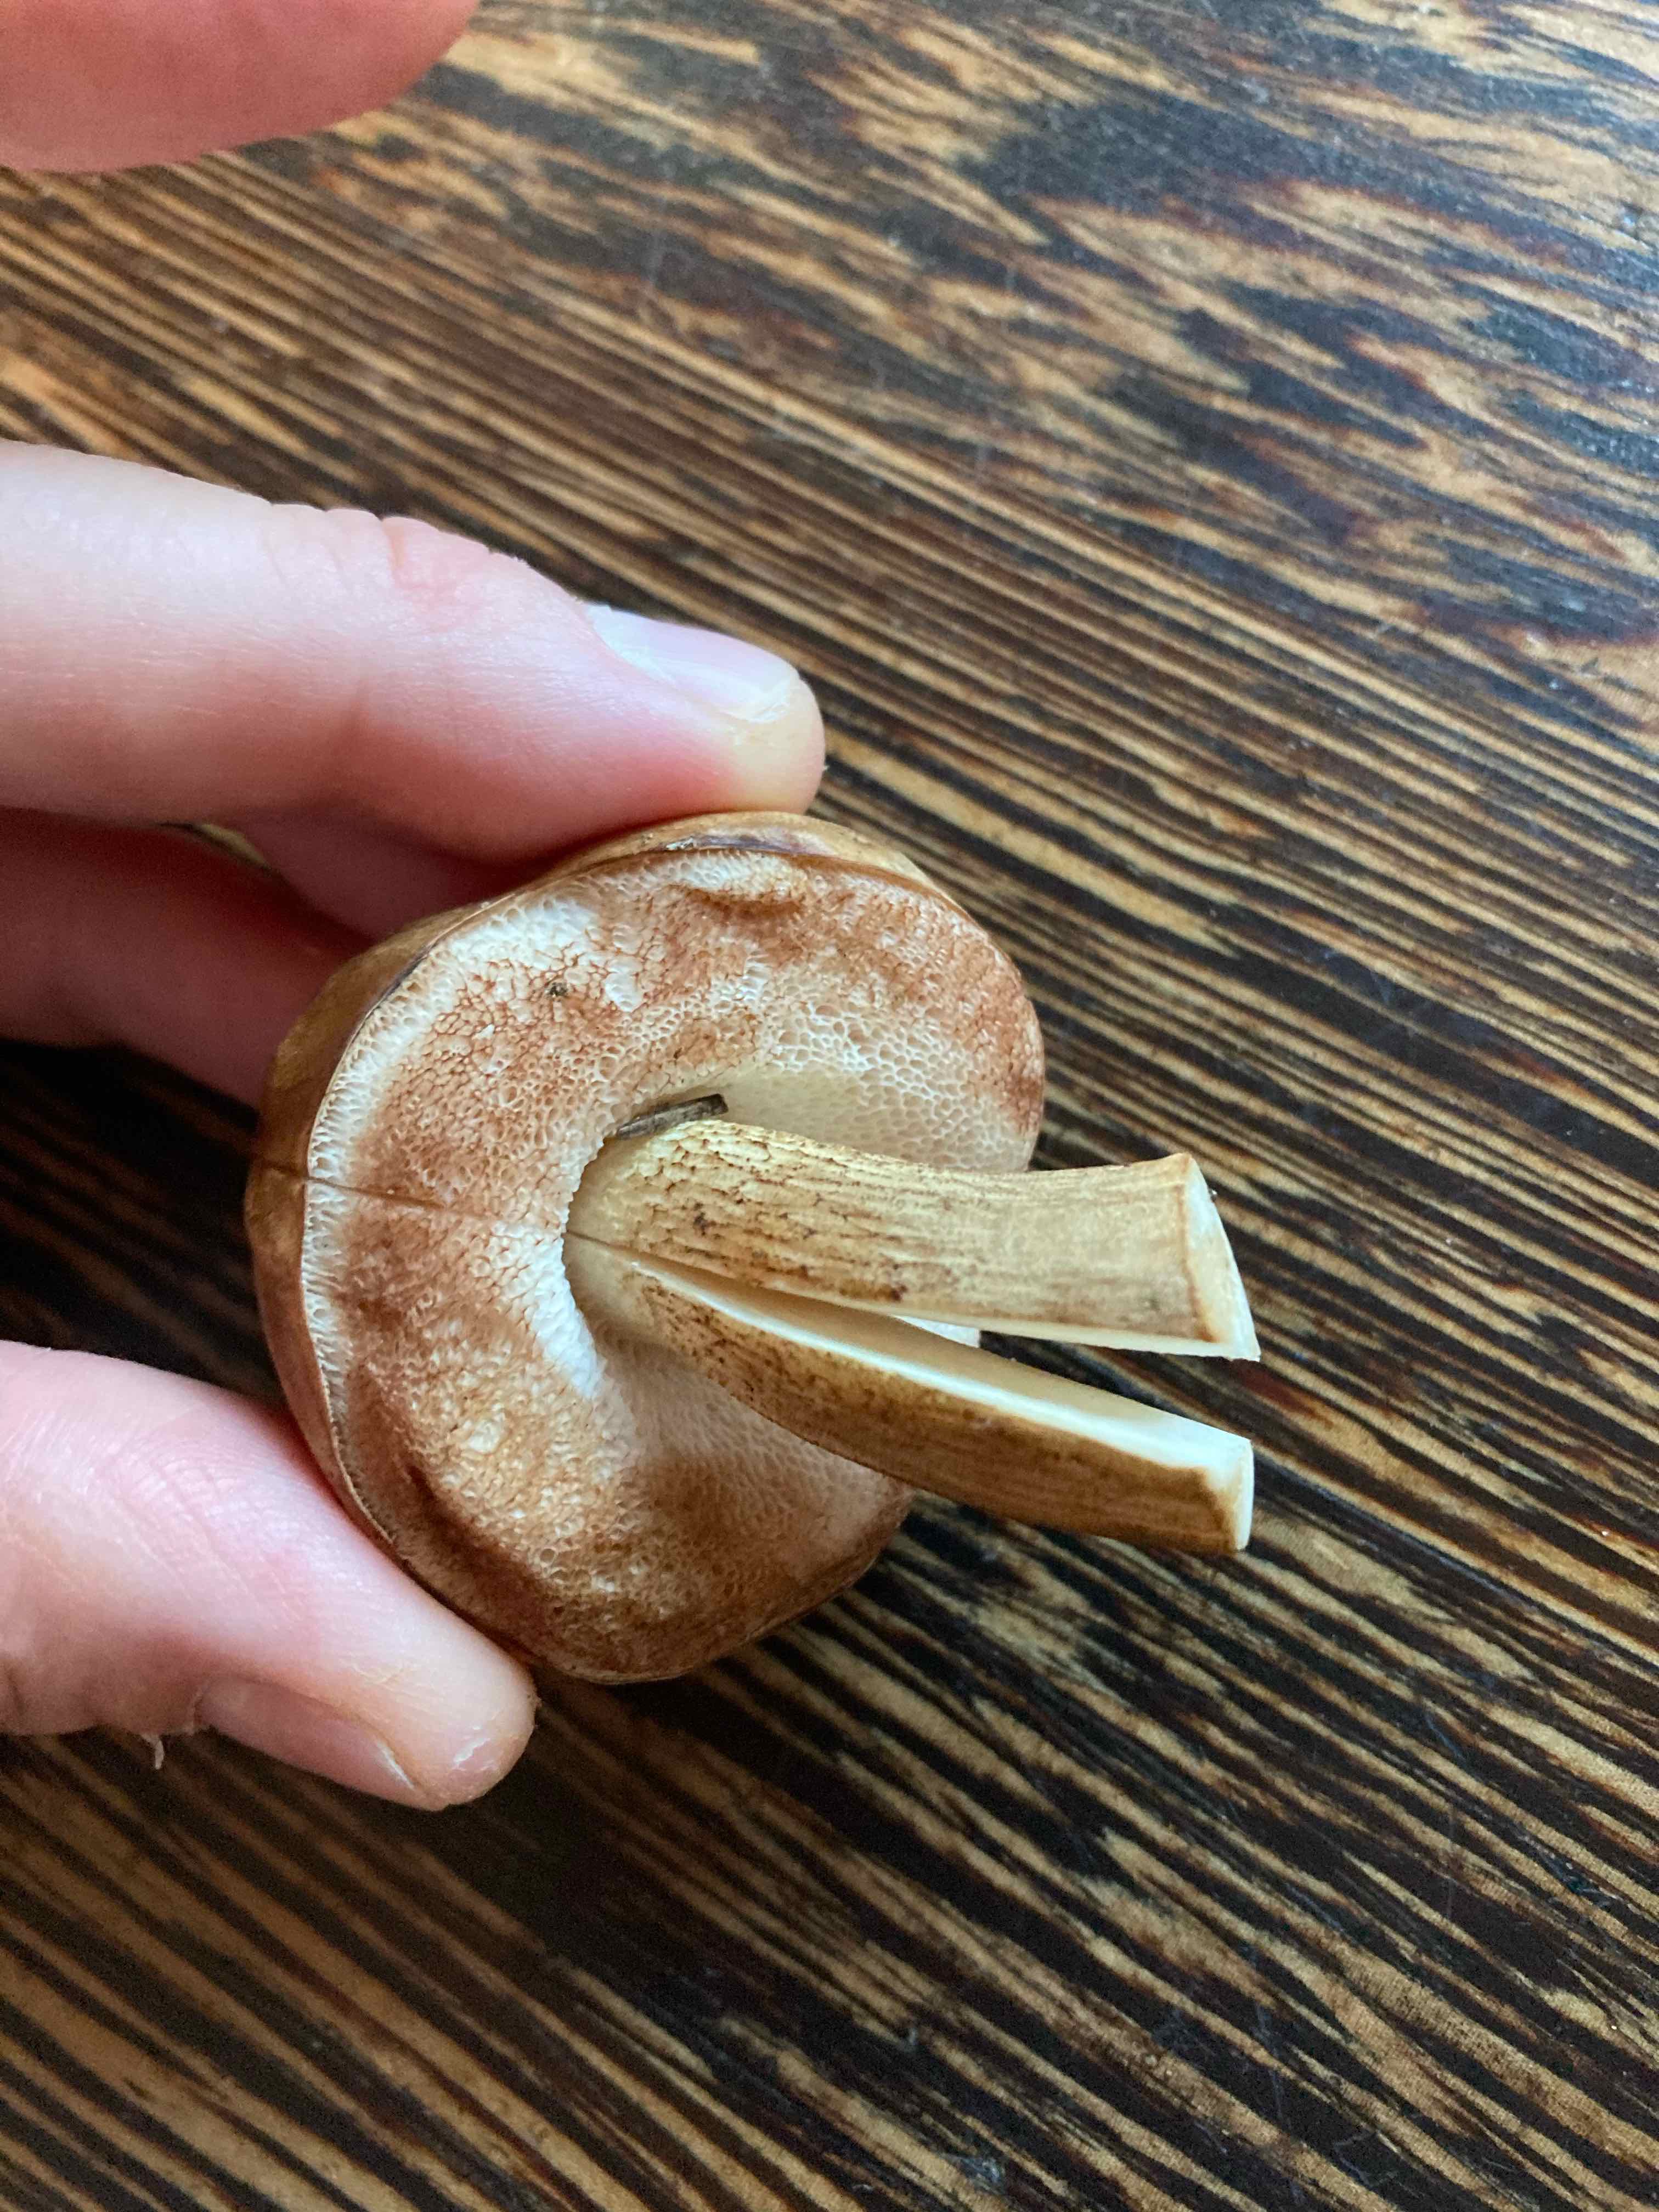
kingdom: Fungi
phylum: Basidiomycota
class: Agaricomycetes
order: Boletales
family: Boletaceae
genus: Tylopilus
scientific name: Tylopilus felleus
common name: galderørhat
